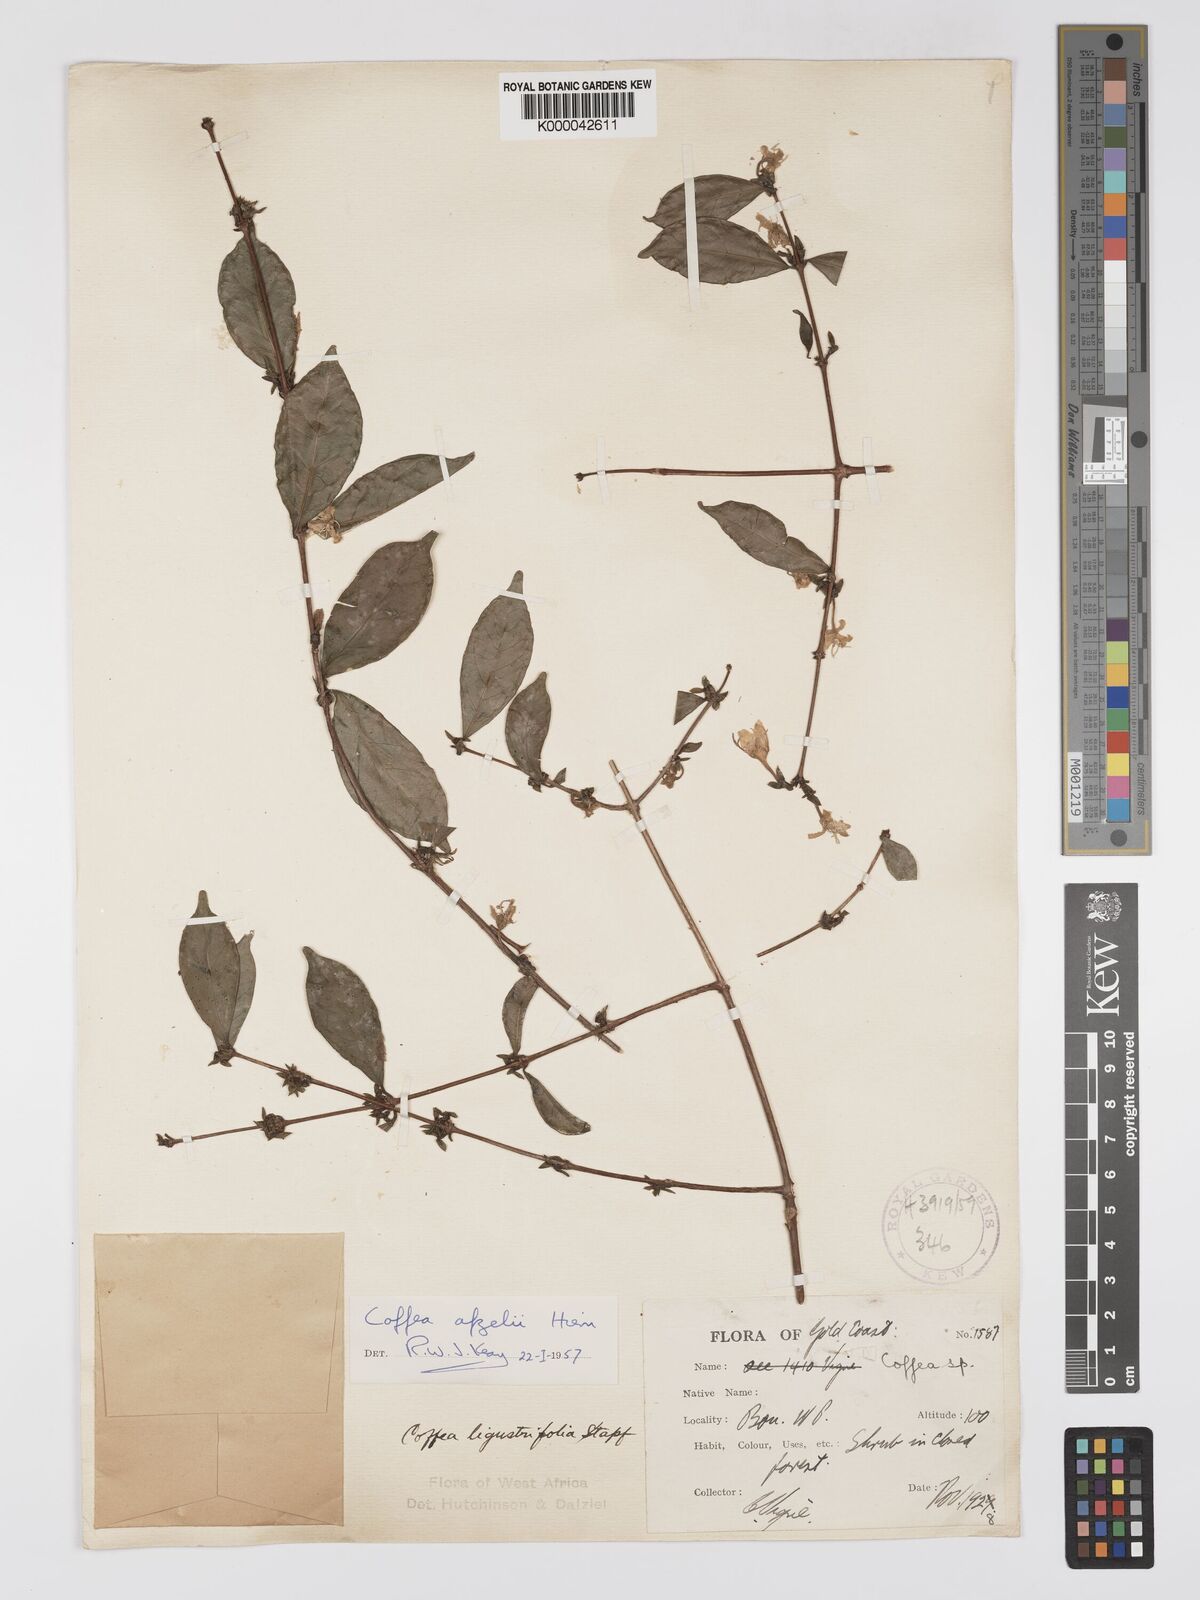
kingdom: Plantae
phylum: Tracheophyta
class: Magnoliopsida
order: Gentianales
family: Rubiaceae
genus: Argocoffeopsis
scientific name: Argocoffeopsis afzelii
